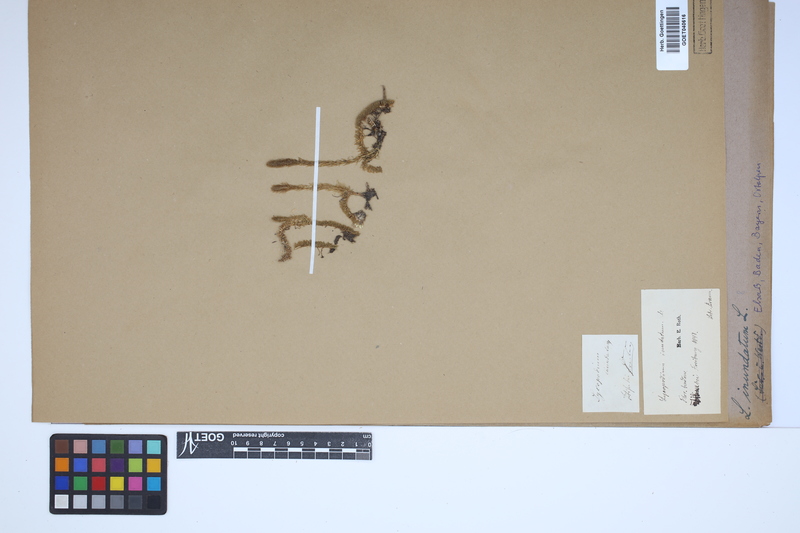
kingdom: Plantae
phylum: Tracheophyta
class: Lycopodiopsida
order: Lycopodiales
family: Lycopodiaceae
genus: Lycopodiella
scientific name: Lycopodiella inundata
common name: Marsh clubmoss
